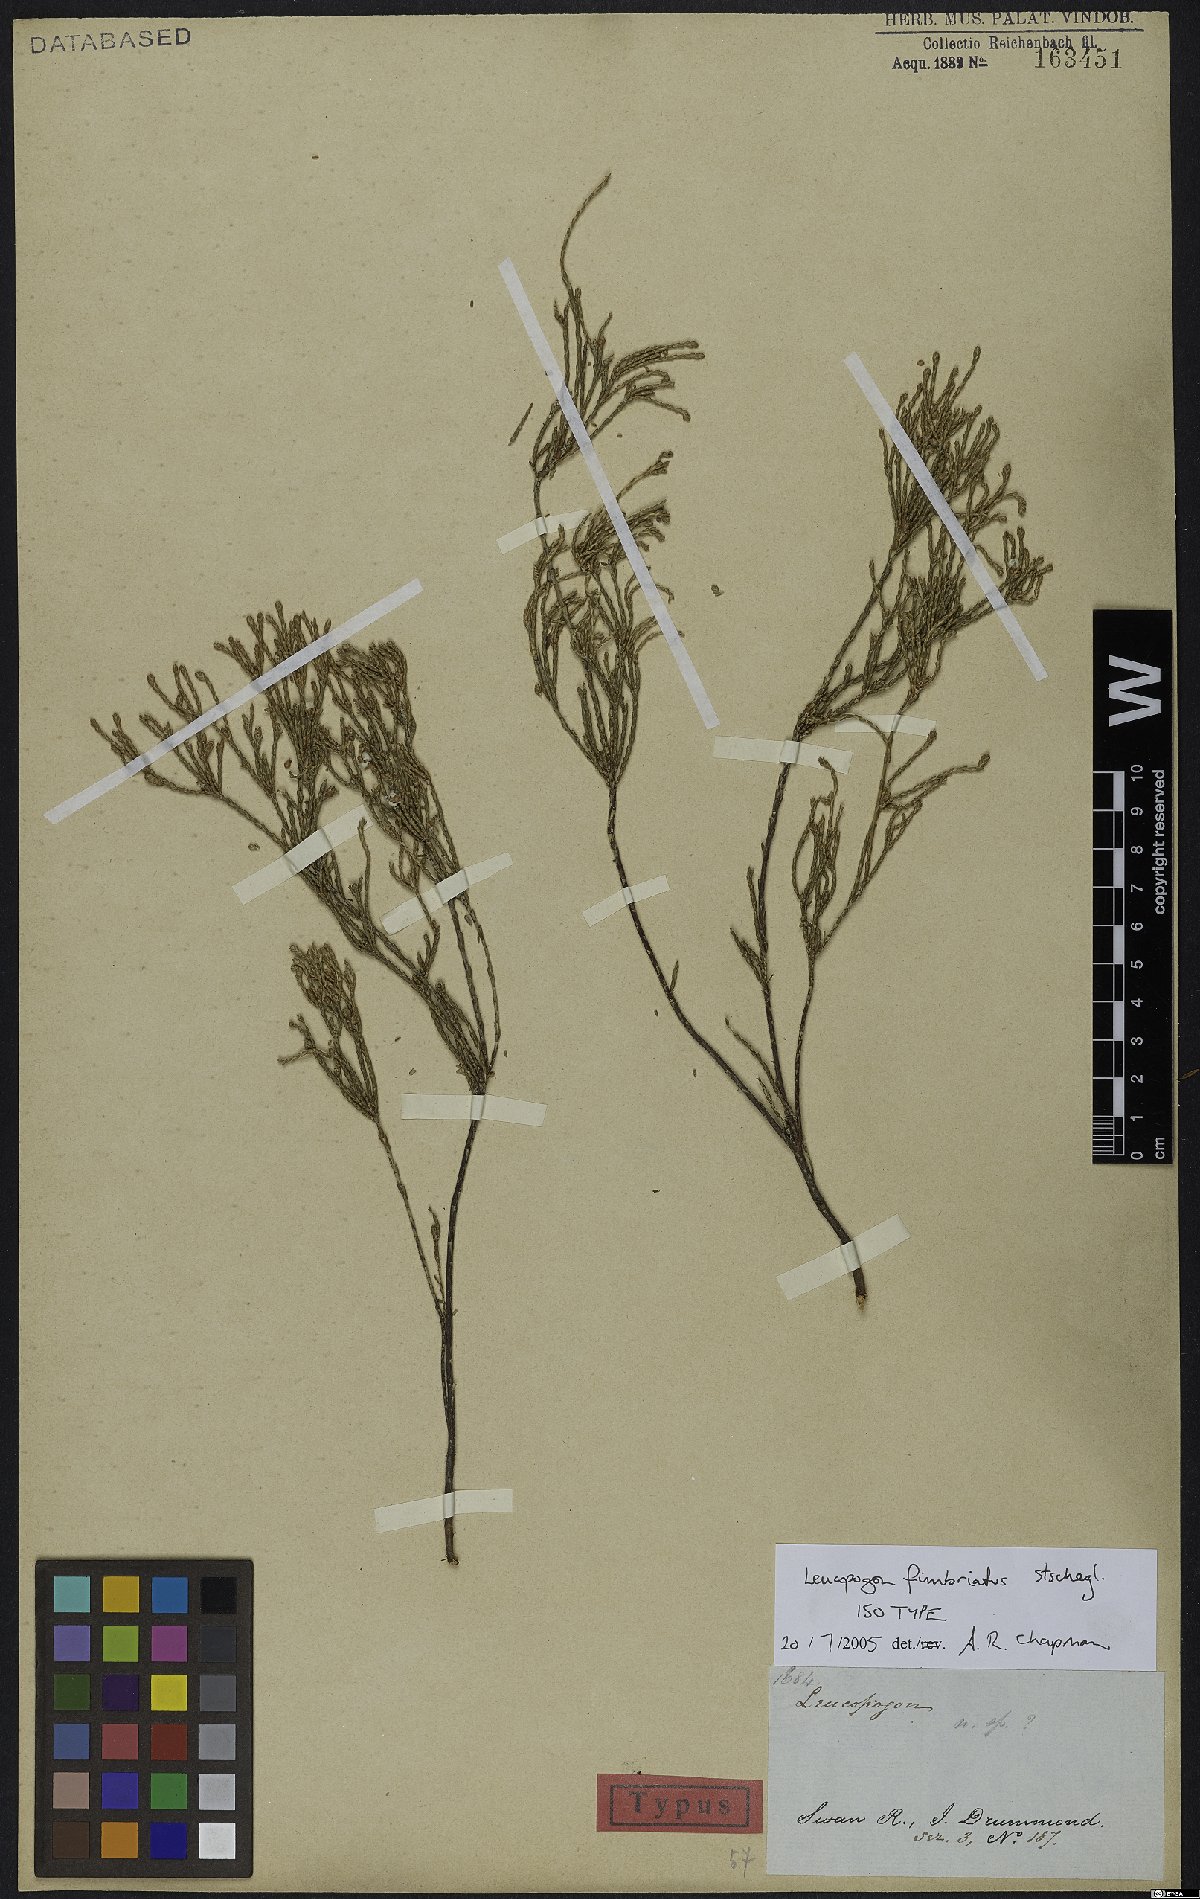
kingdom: Plantae
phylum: Tracheophyta
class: Magnoliopsida
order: Ericales
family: Ericaceae
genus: Leucopogon
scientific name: Leucopogon fimbriatus
